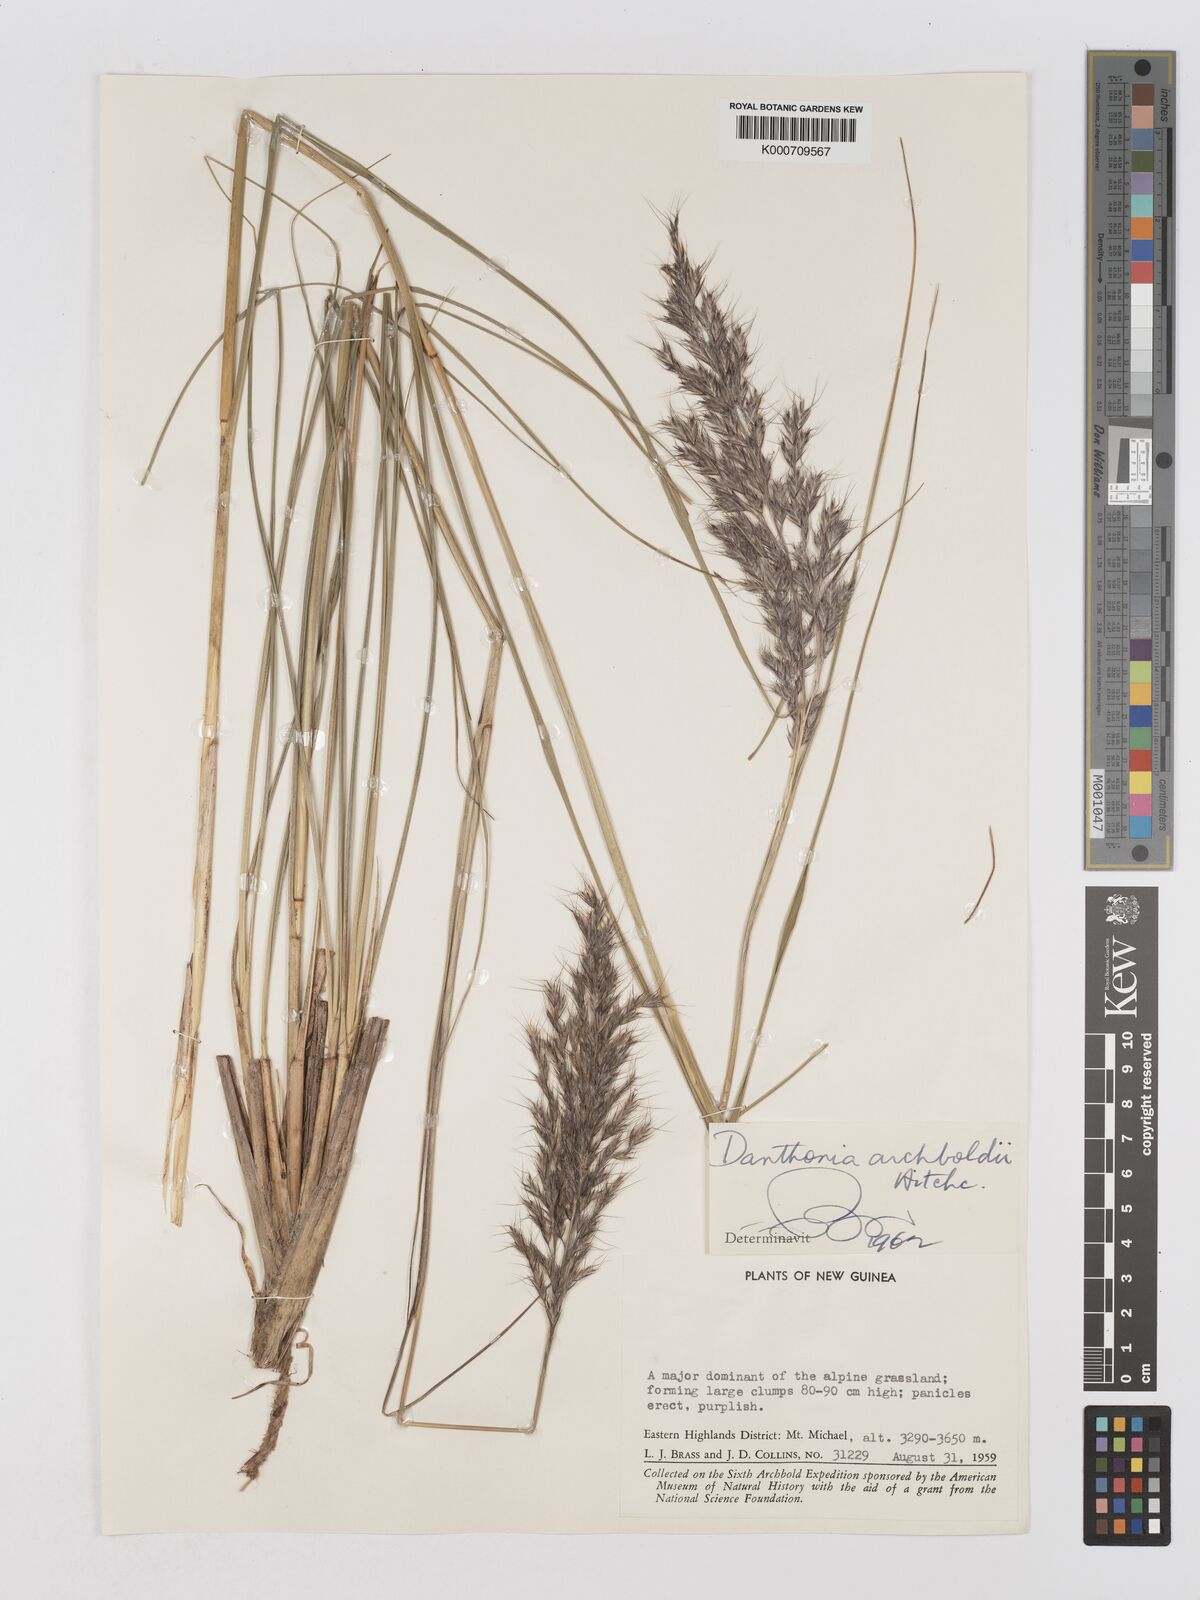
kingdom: Plantae
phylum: Tracheophyta
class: Liliopsida
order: Poales
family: Poaceae
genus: Chimaerochloa
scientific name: Chimaerochloa archboldii
